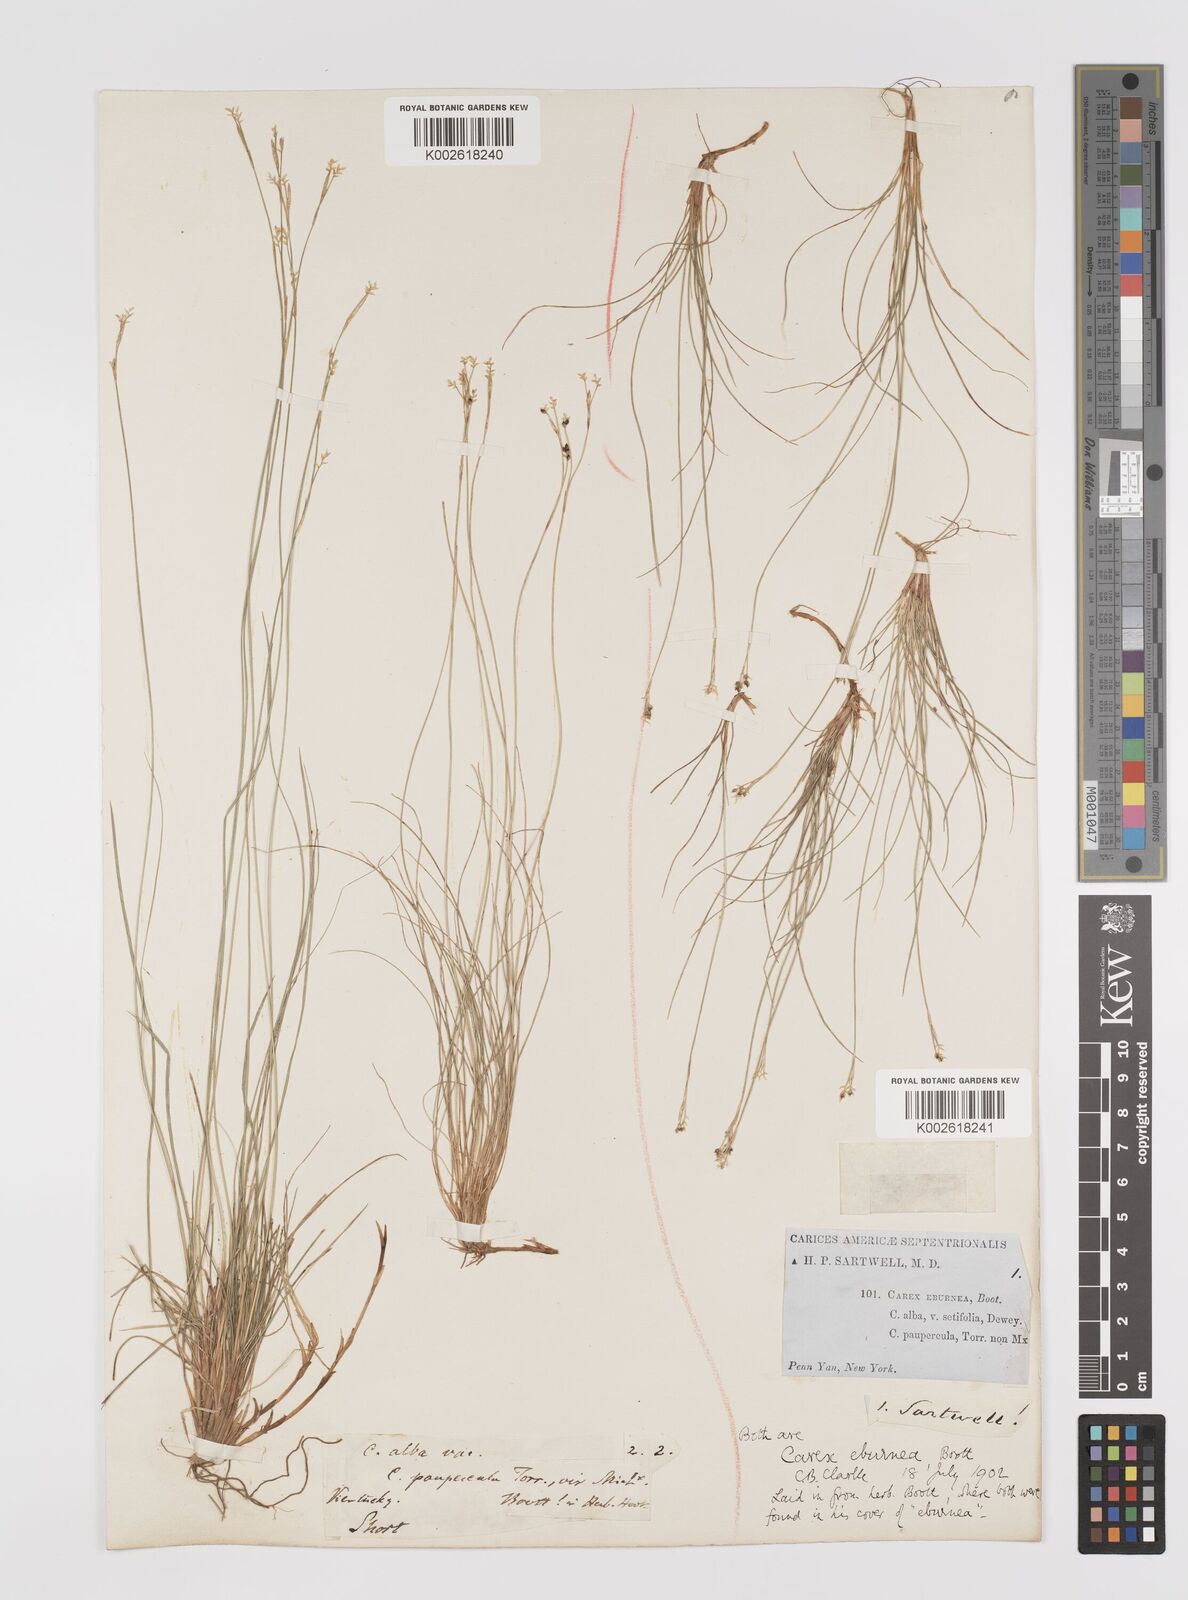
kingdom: Plantae
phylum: Tracheophyta
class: Liliopsida
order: Poales
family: Cyperaceae
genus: Carex
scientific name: Carex eburnea
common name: Bristle-leaved sedge
